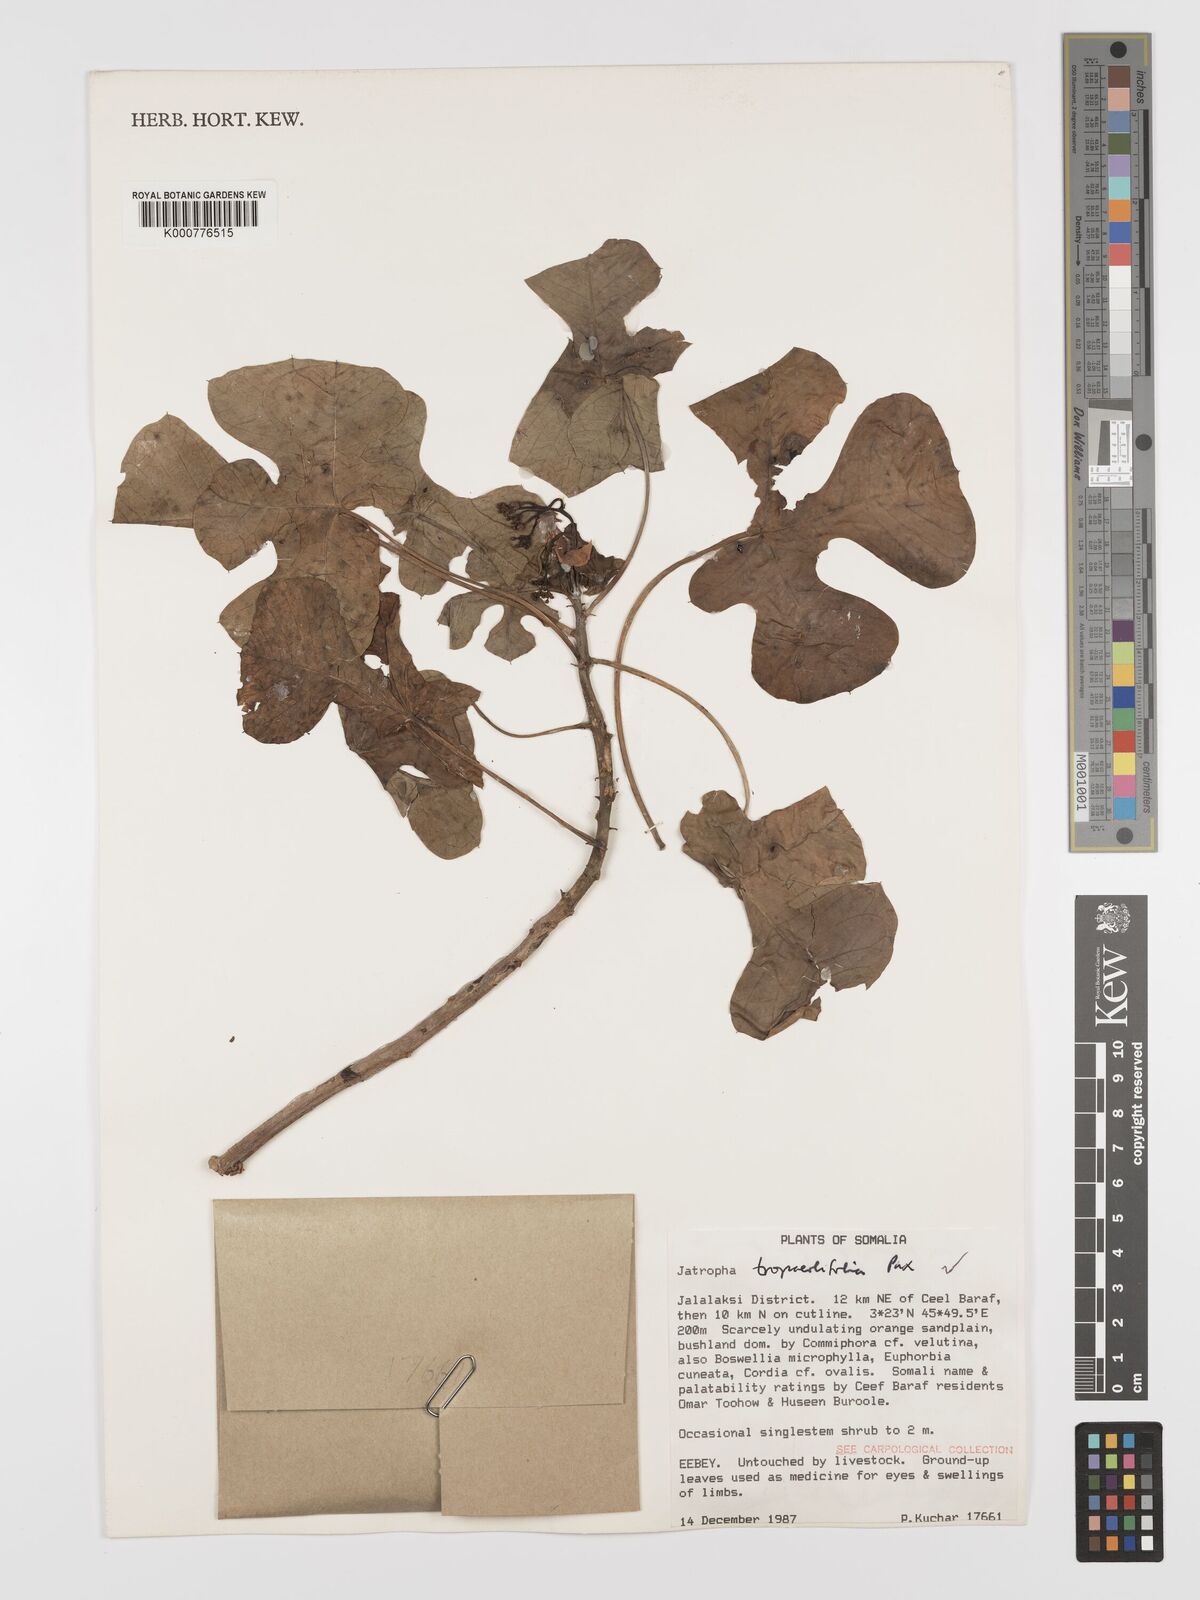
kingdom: Plantae
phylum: Tracheophyta
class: Magnoliopsida
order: Malpighiales
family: Euphorbiaceae
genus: Jatropha
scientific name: Jatropha tropaeolifolia
